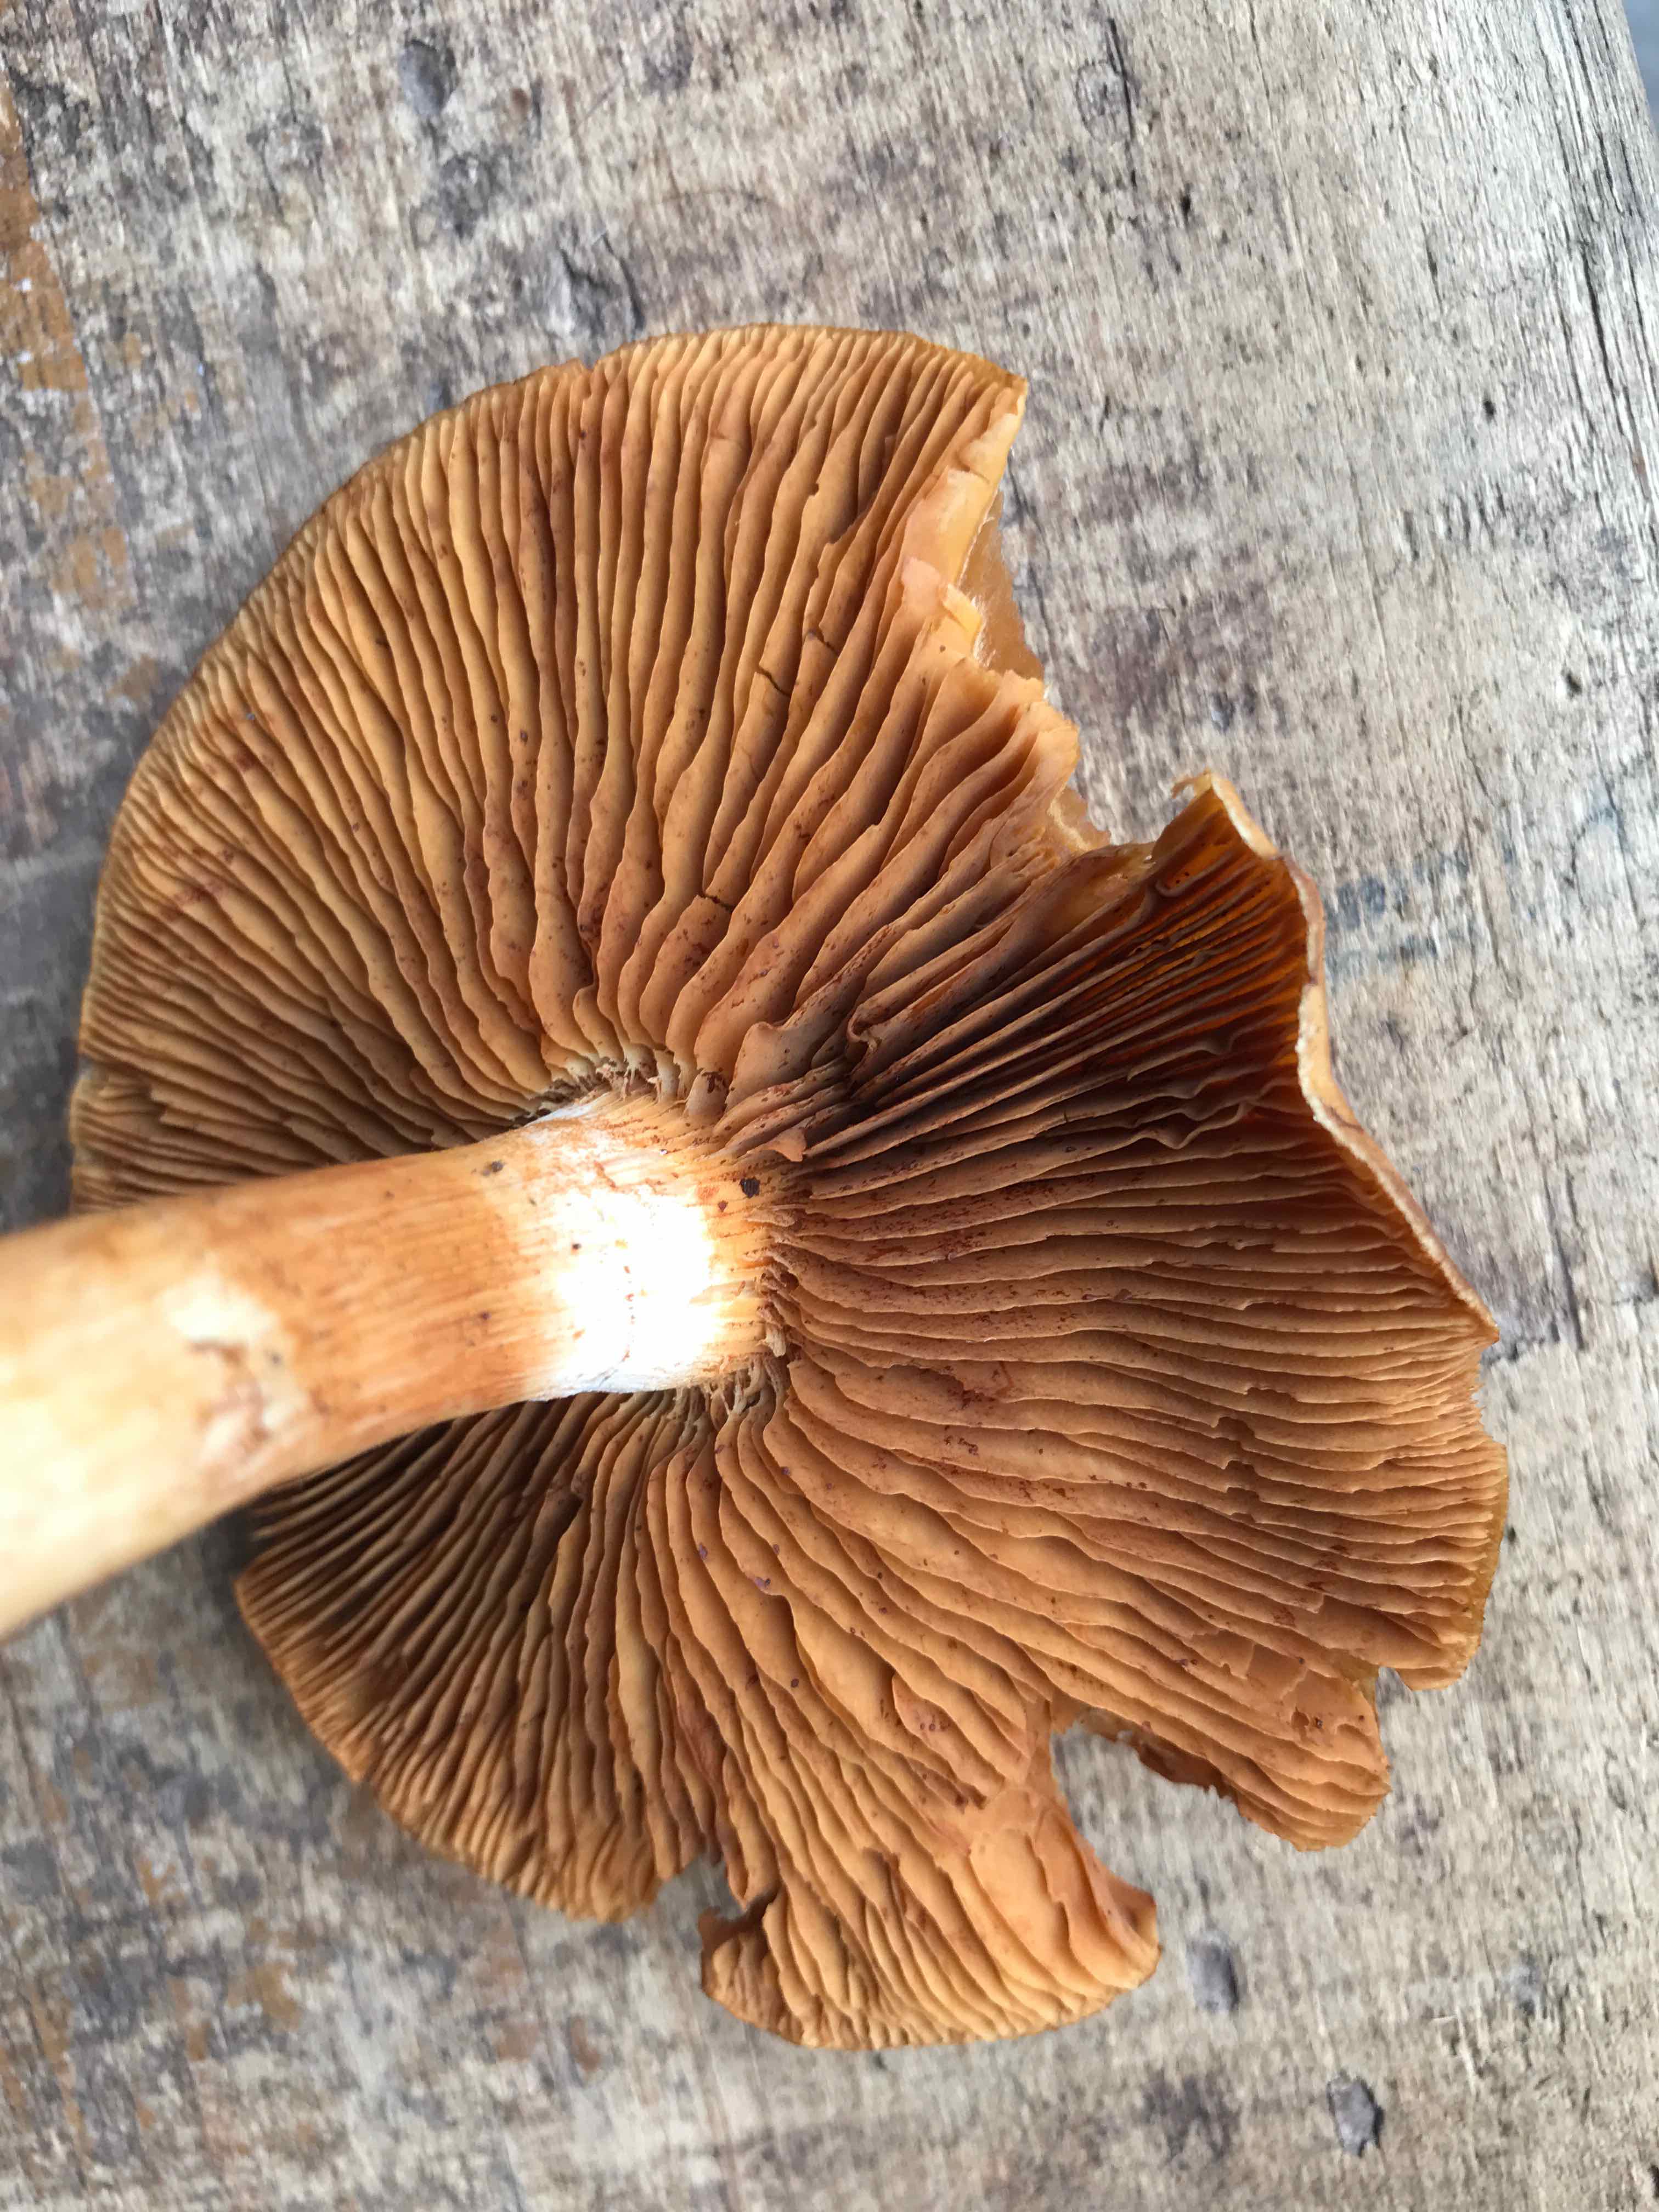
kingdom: Fungi
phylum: Basidiomycota
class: Agaricomycetes
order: Agaricales
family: Cortinariaceae
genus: Cortinarius
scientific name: Cortinarius
